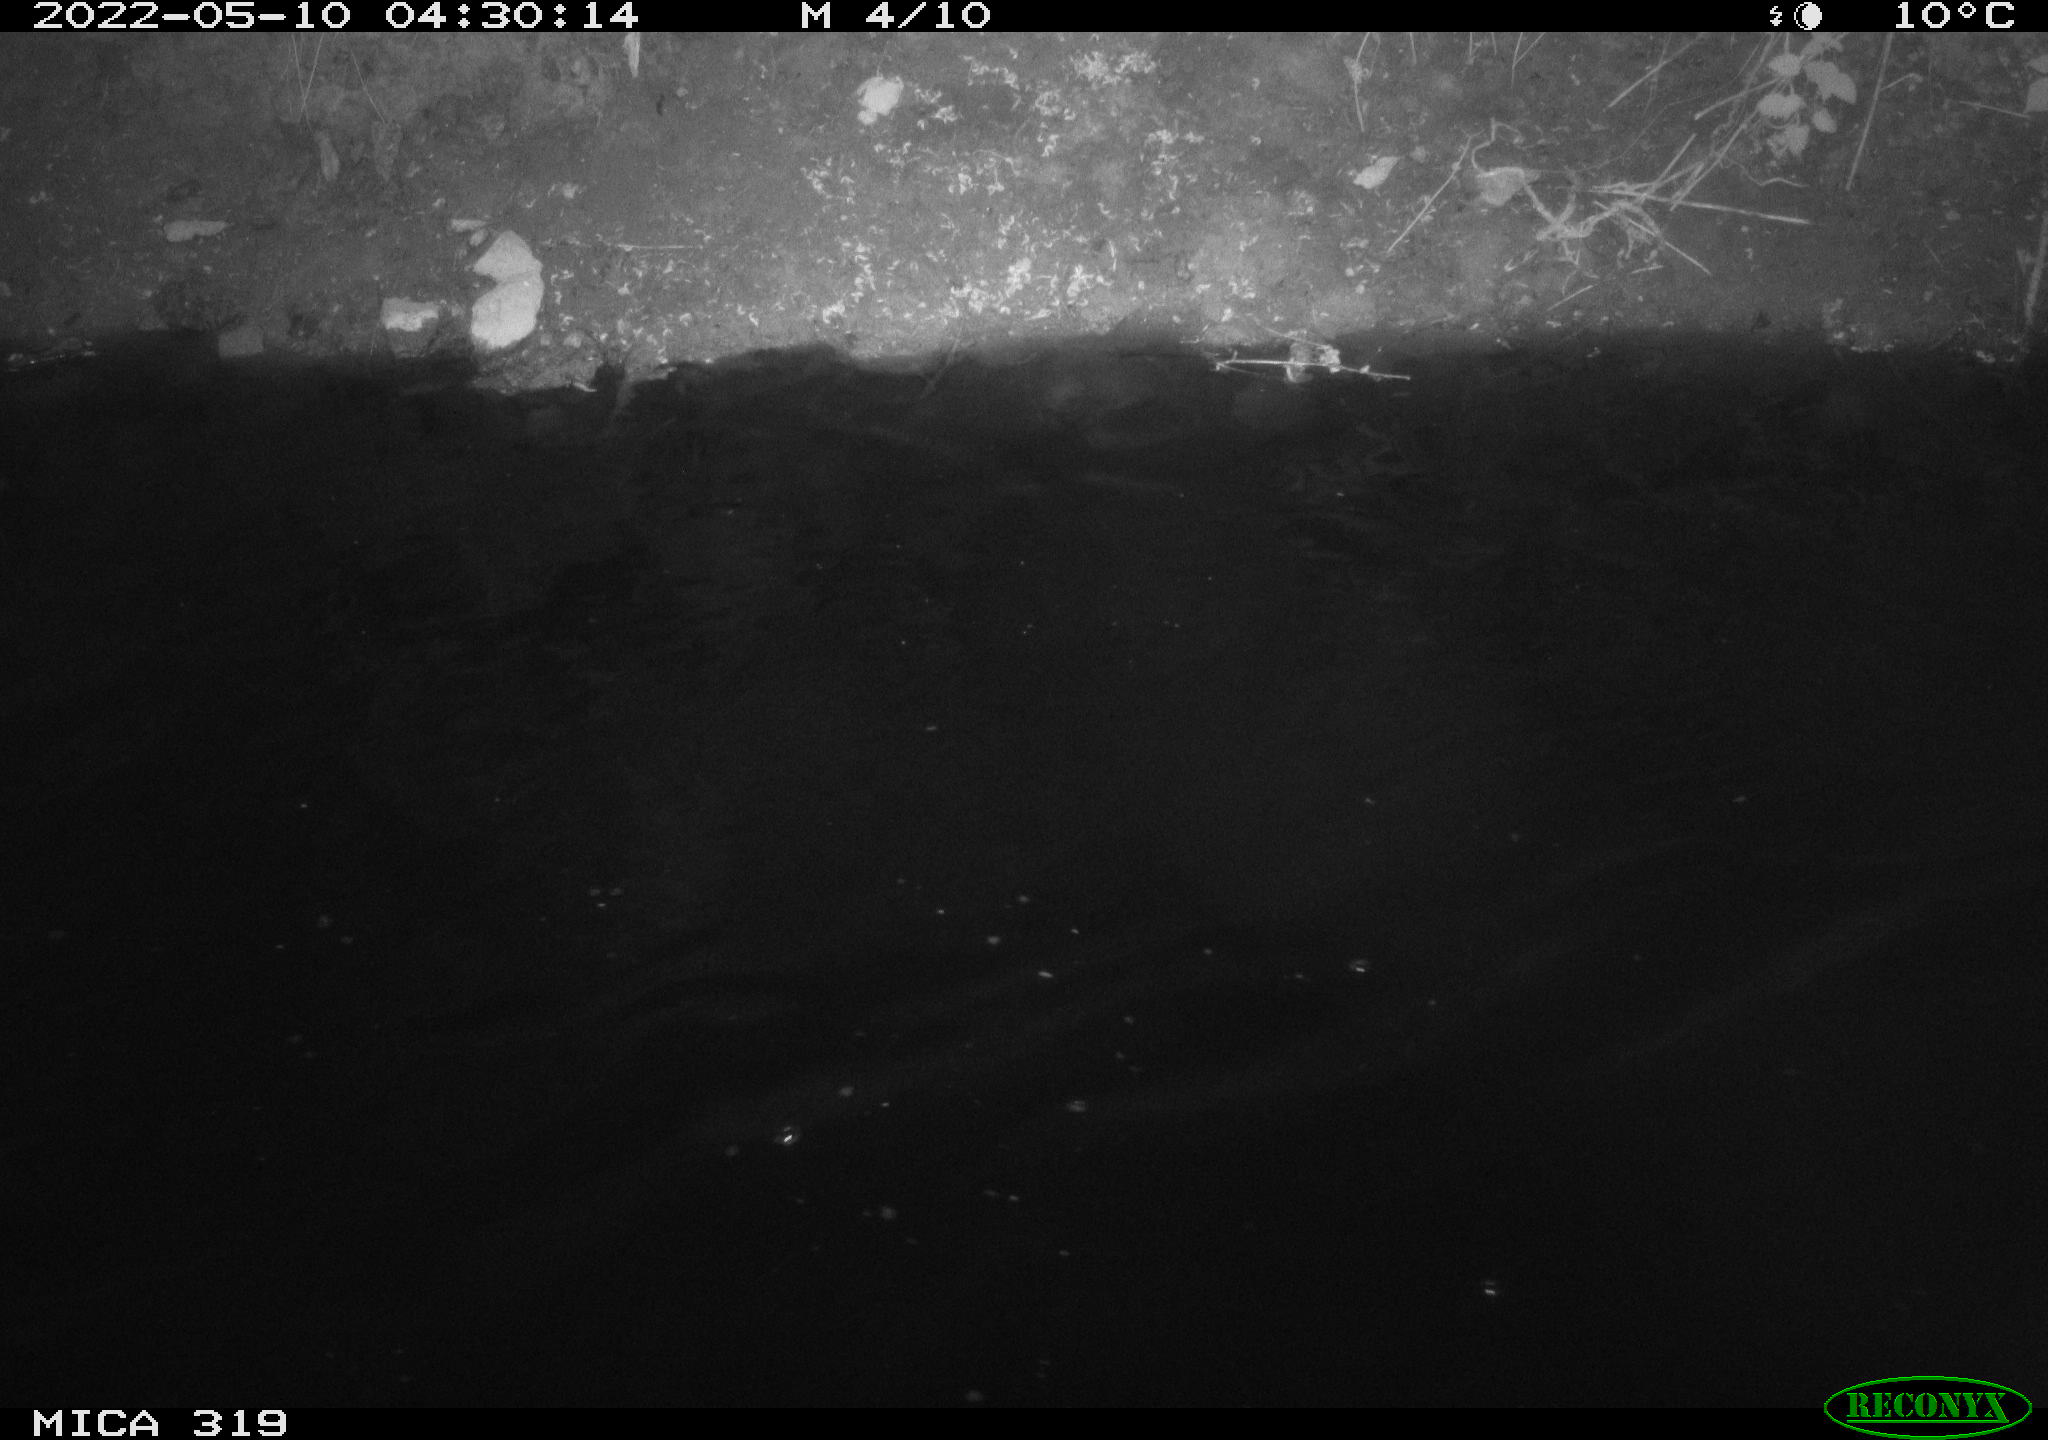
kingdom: Animalia
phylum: Chordata
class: Aves
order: Anseriformes
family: Anatidae
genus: Anas
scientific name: Anas platyrhynchos
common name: Mallard
